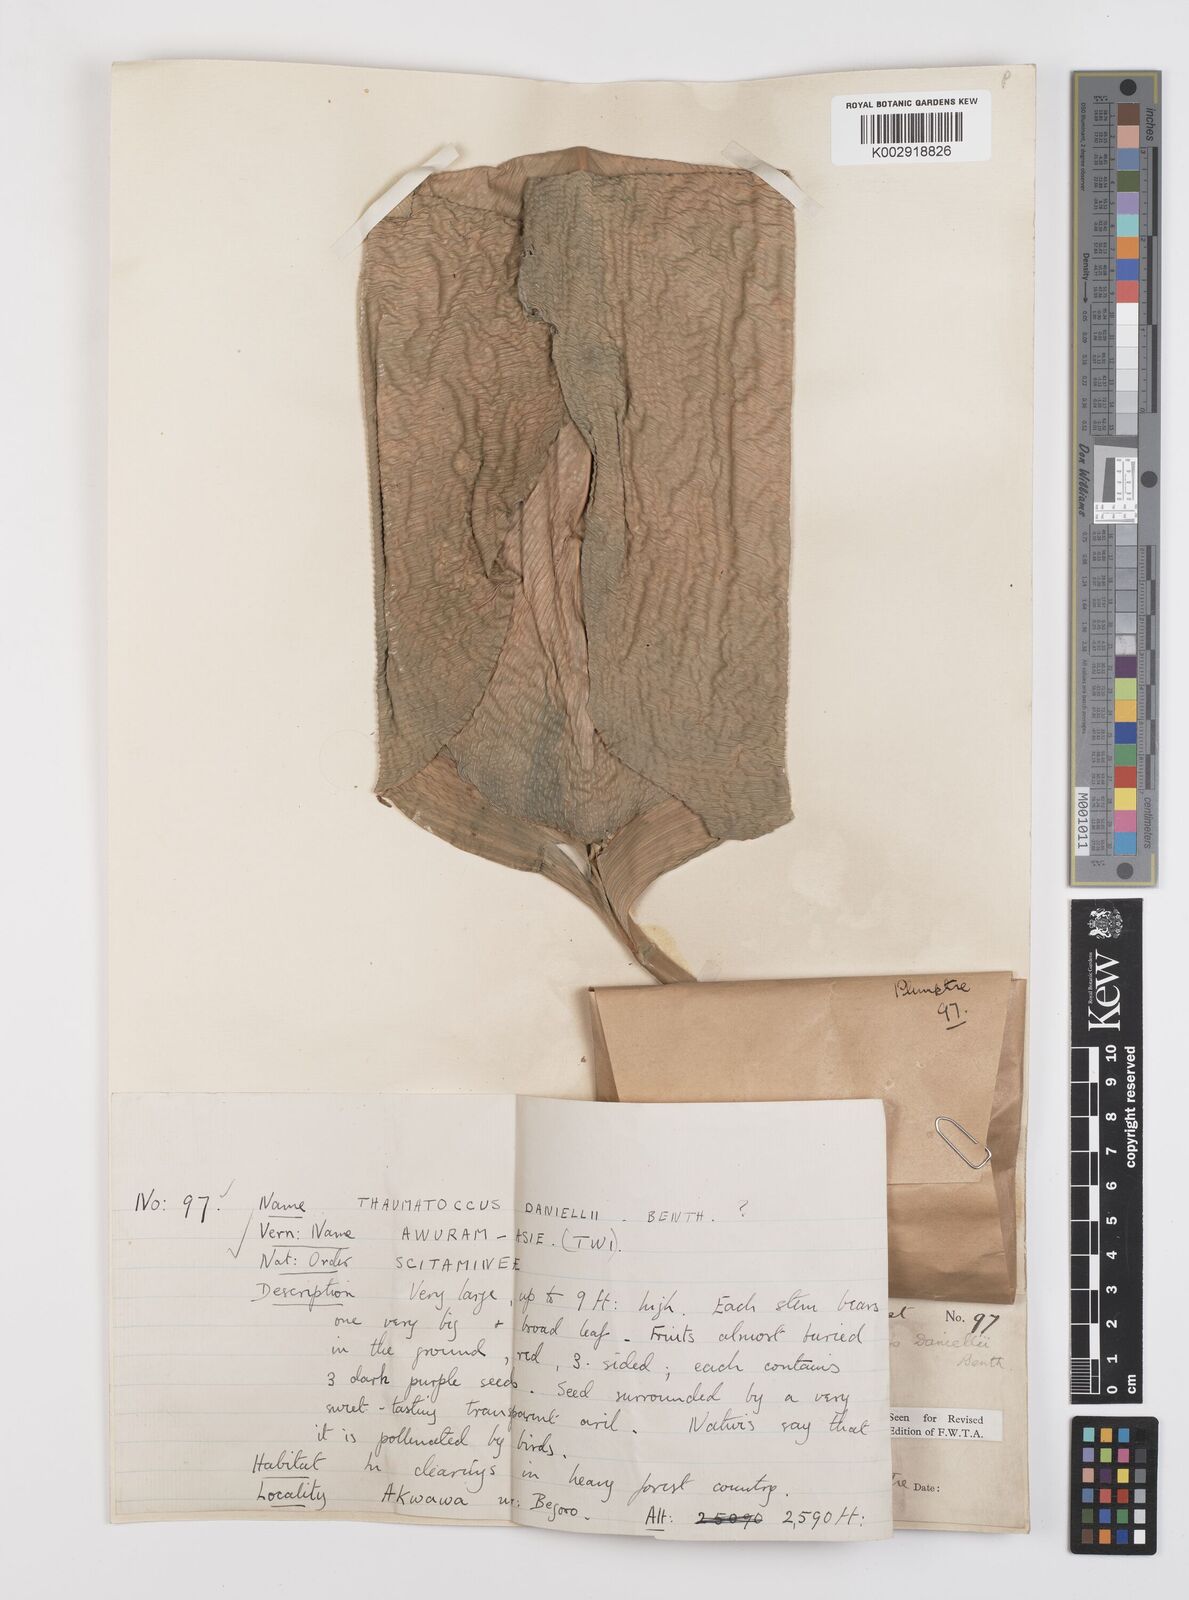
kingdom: Plantae
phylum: Tracheophyta
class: Liliopsida
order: Zingiberales
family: Marantaceae
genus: Thaumatococcus
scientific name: Thaumatococcus daniellii
